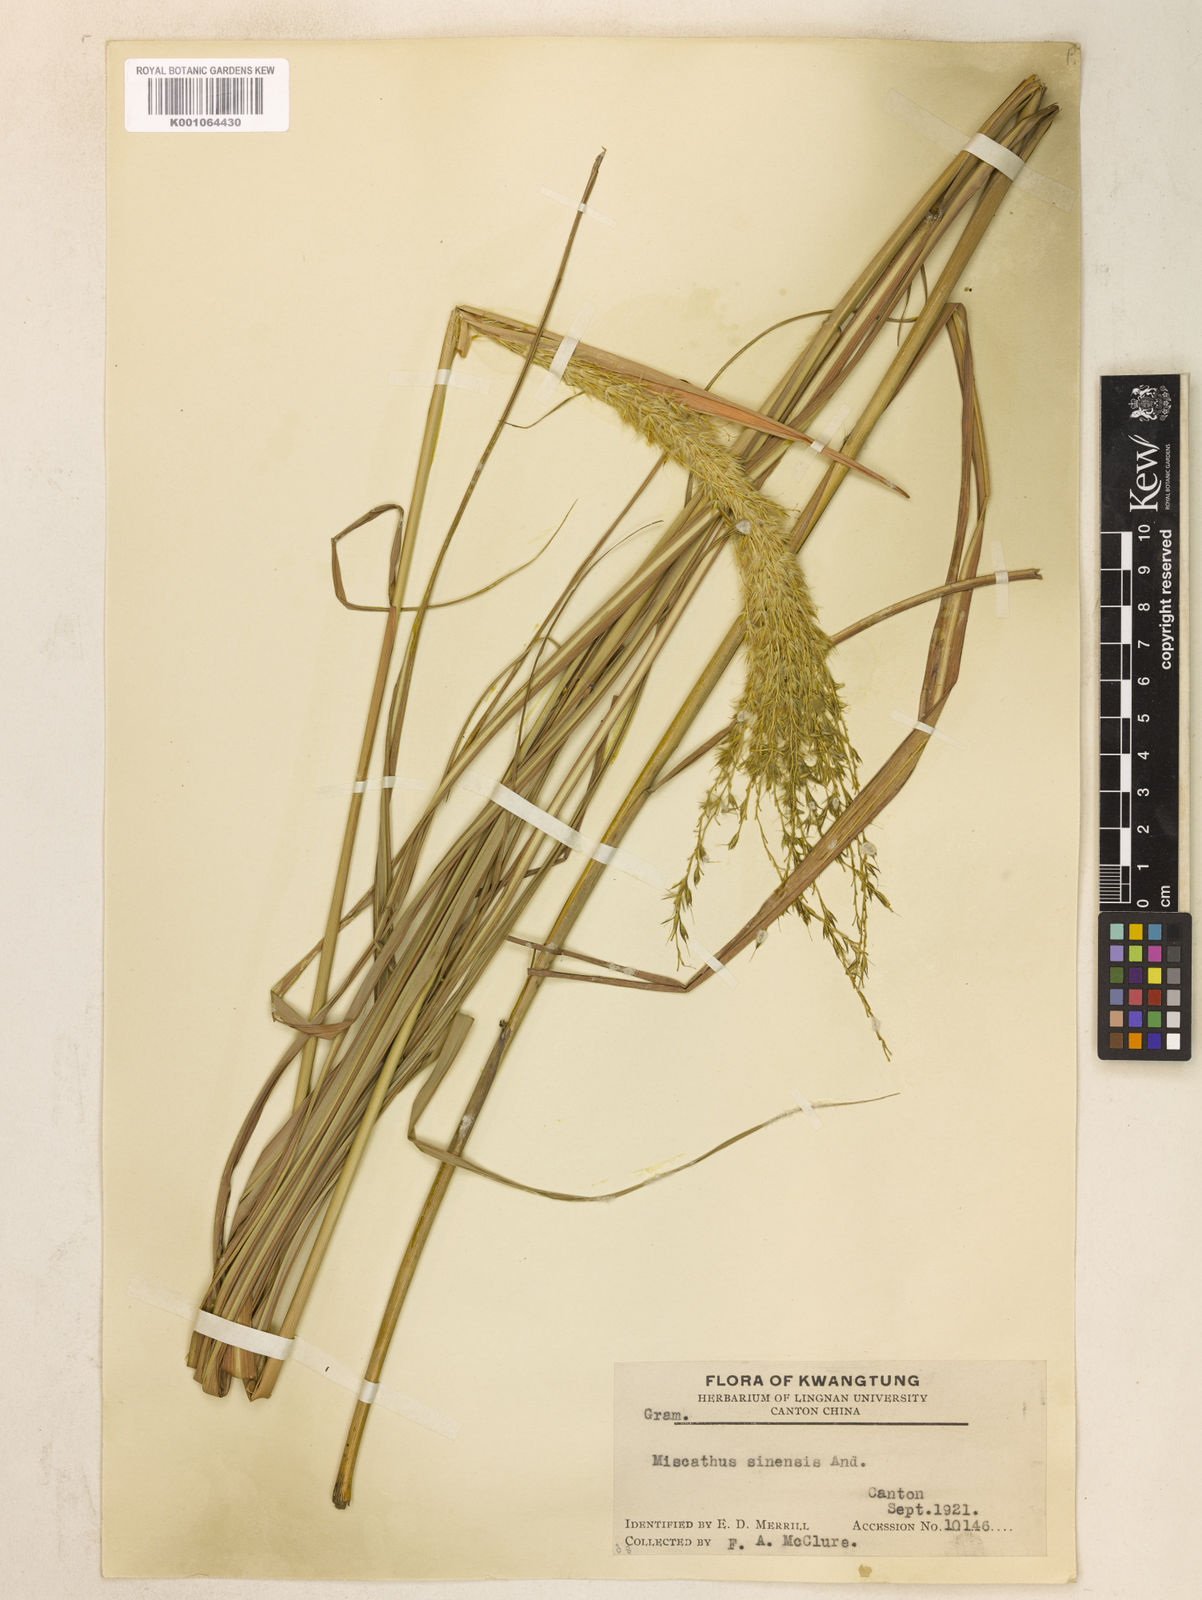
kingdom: Plantae
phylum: Tracheophyta
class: Liliopsida
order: Poales
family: Poaceae
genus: Miscanthus
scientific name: Miscanthus sinensis
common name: Chinese silvergrass
